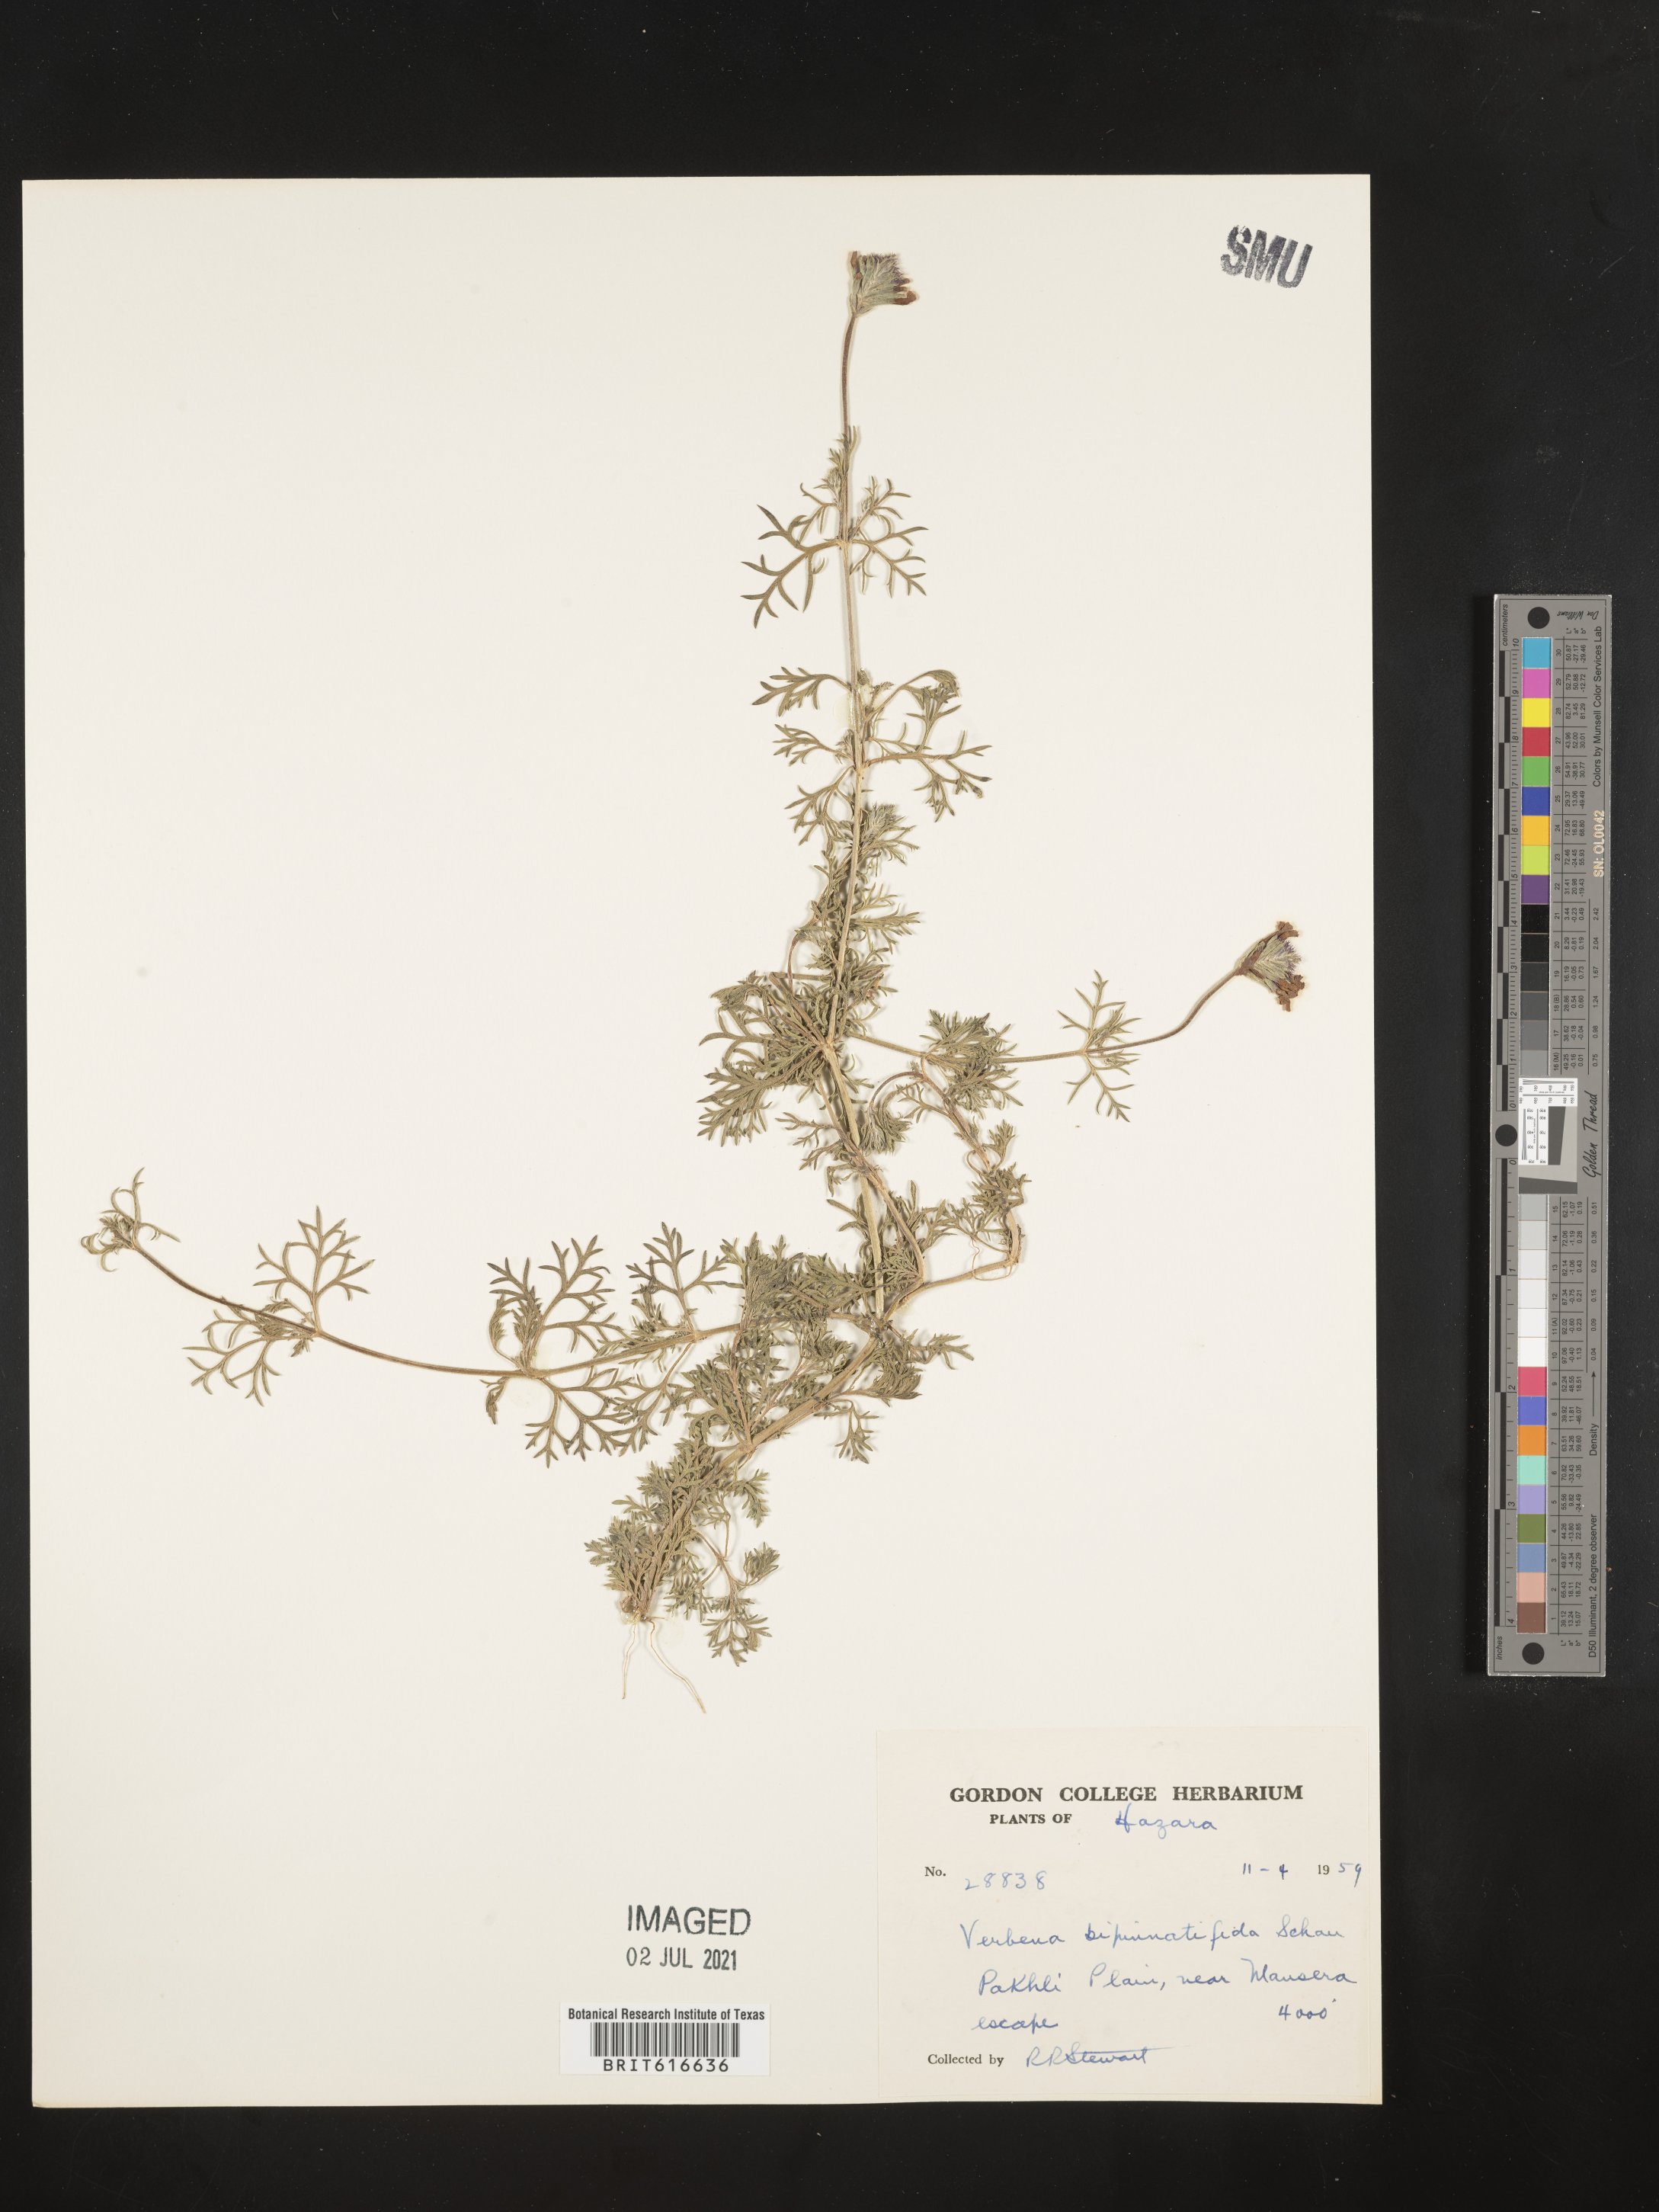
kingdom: Plantae
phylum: Tracheophyta
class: Magnoliopsida
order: Lamiales
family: Verbenaceae
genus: Verbena
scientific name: Verbena bipinnatifida
